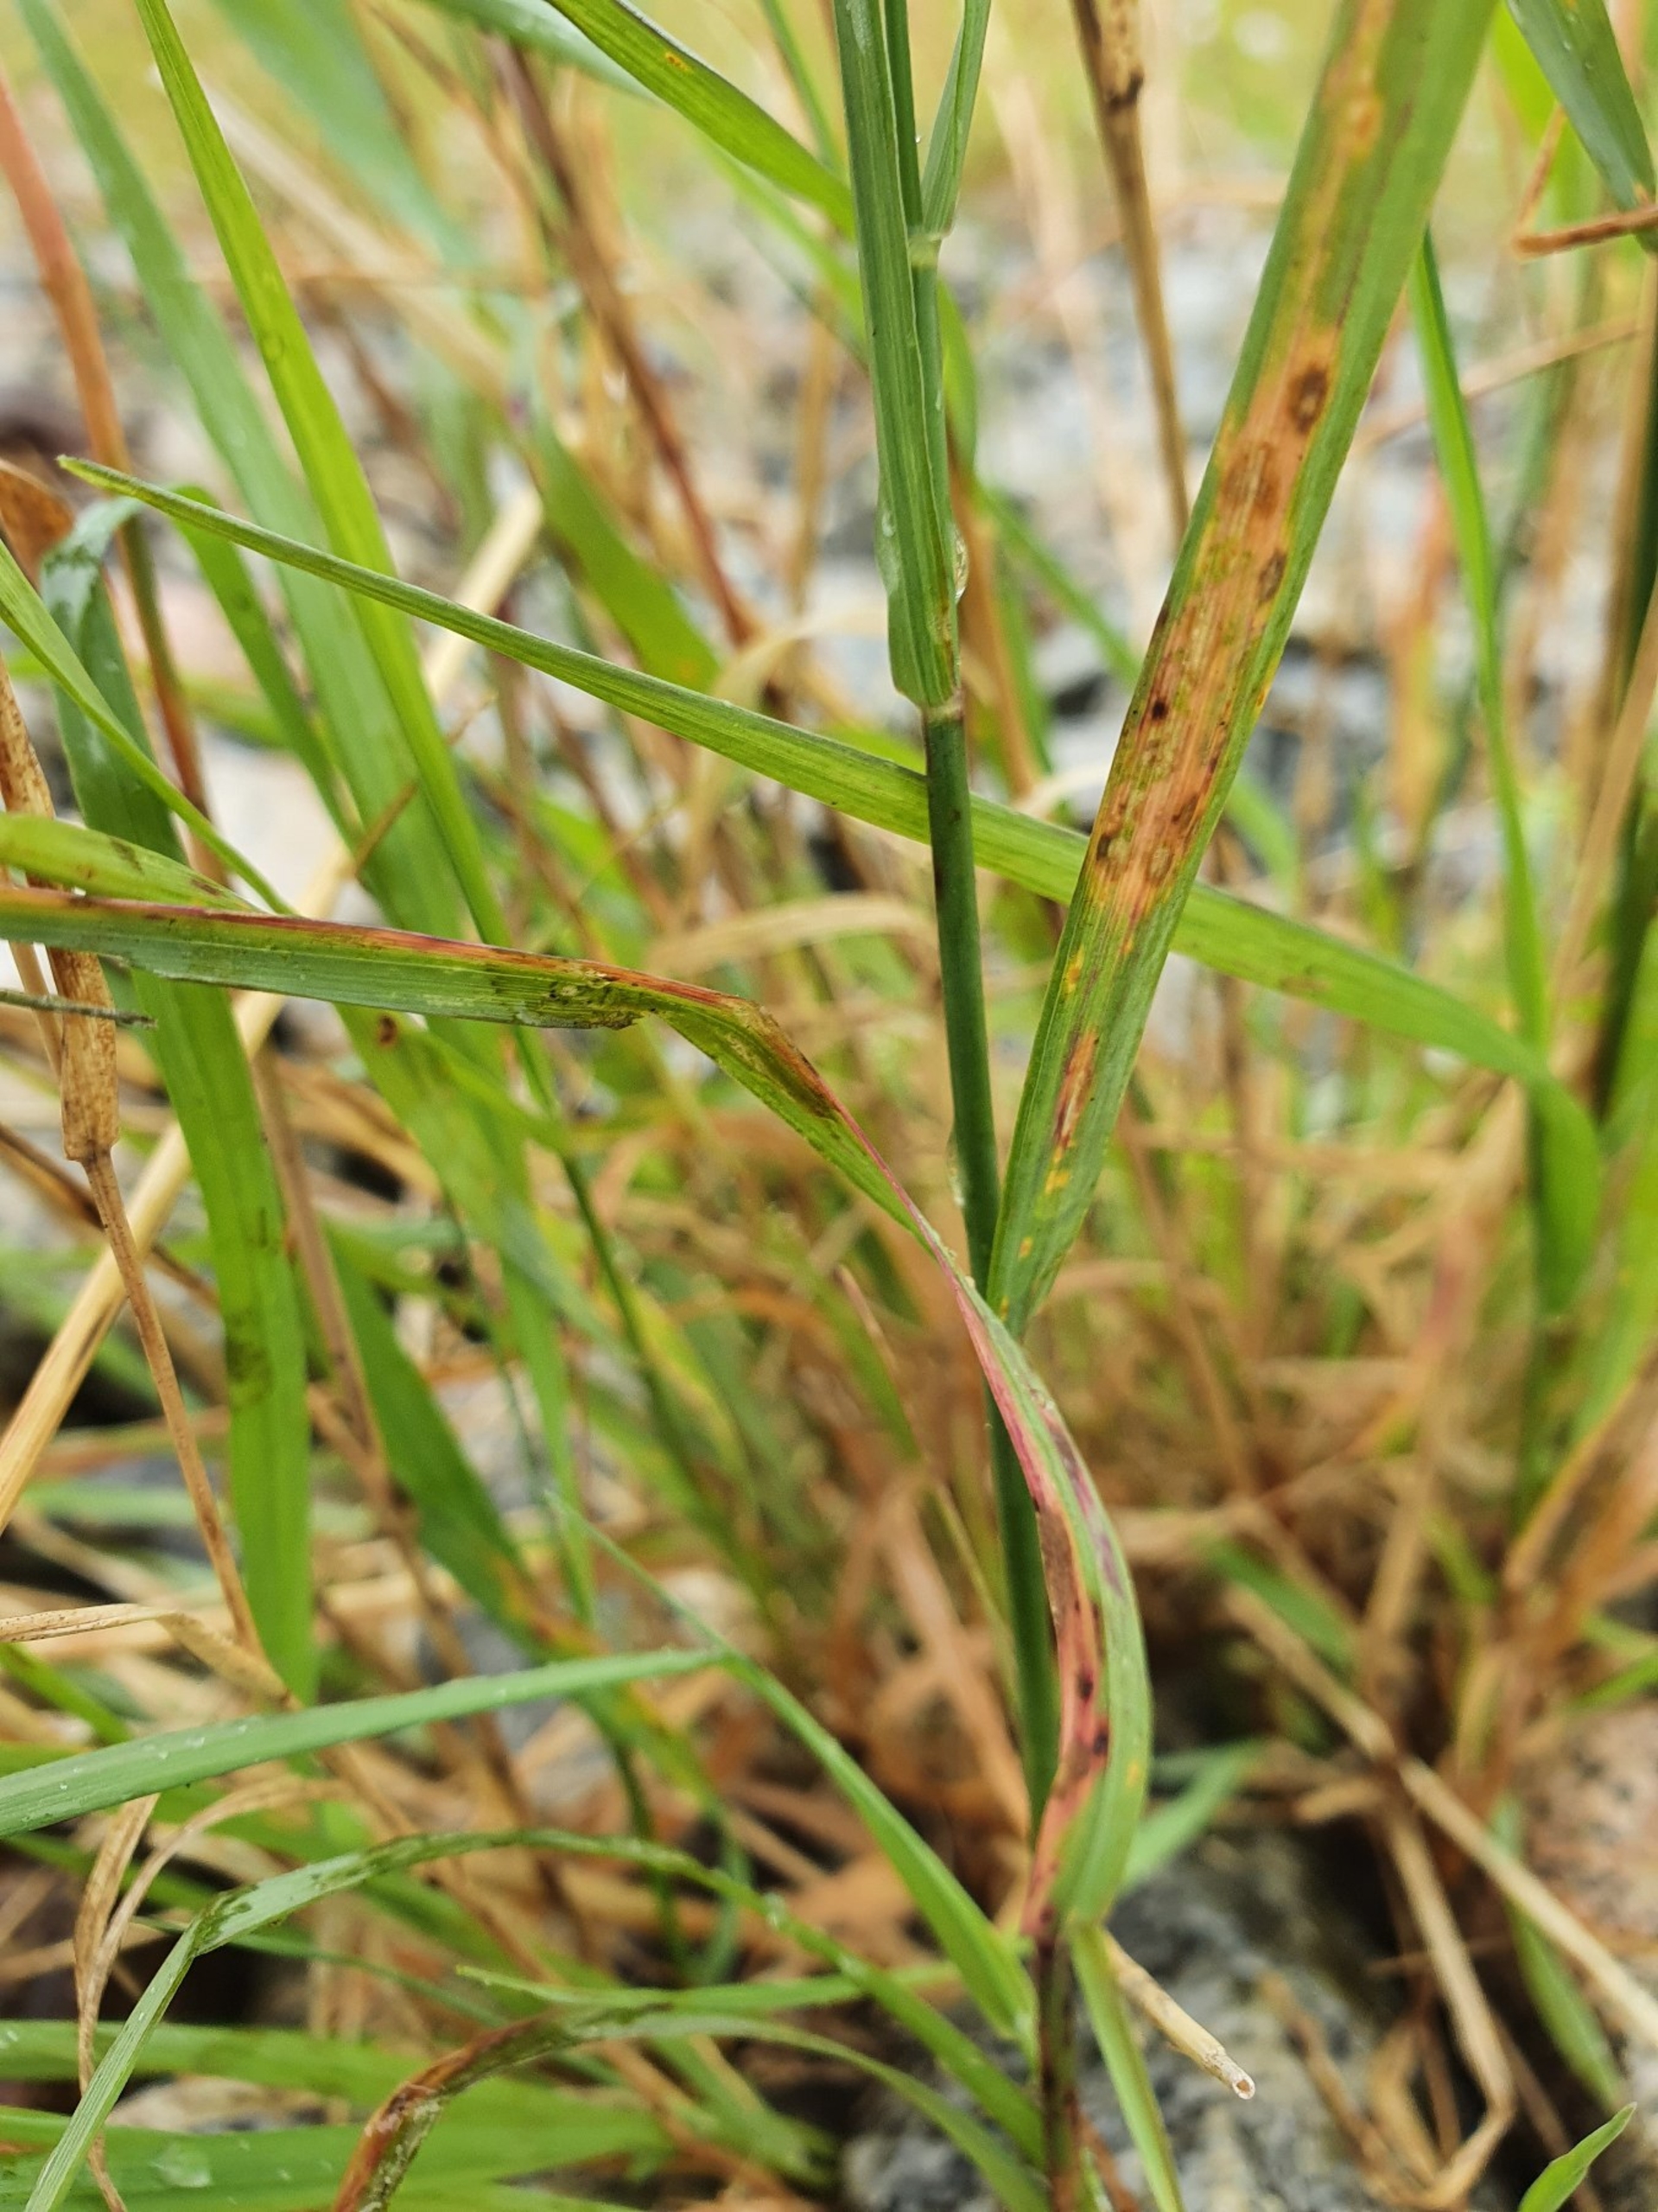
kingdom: Plantae
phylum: Tracheophyta
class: Liliopsida
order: Poales
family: Poaceae
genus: Arrhenatherum
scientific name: Arrhenatherum elatius
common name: Draphavre
